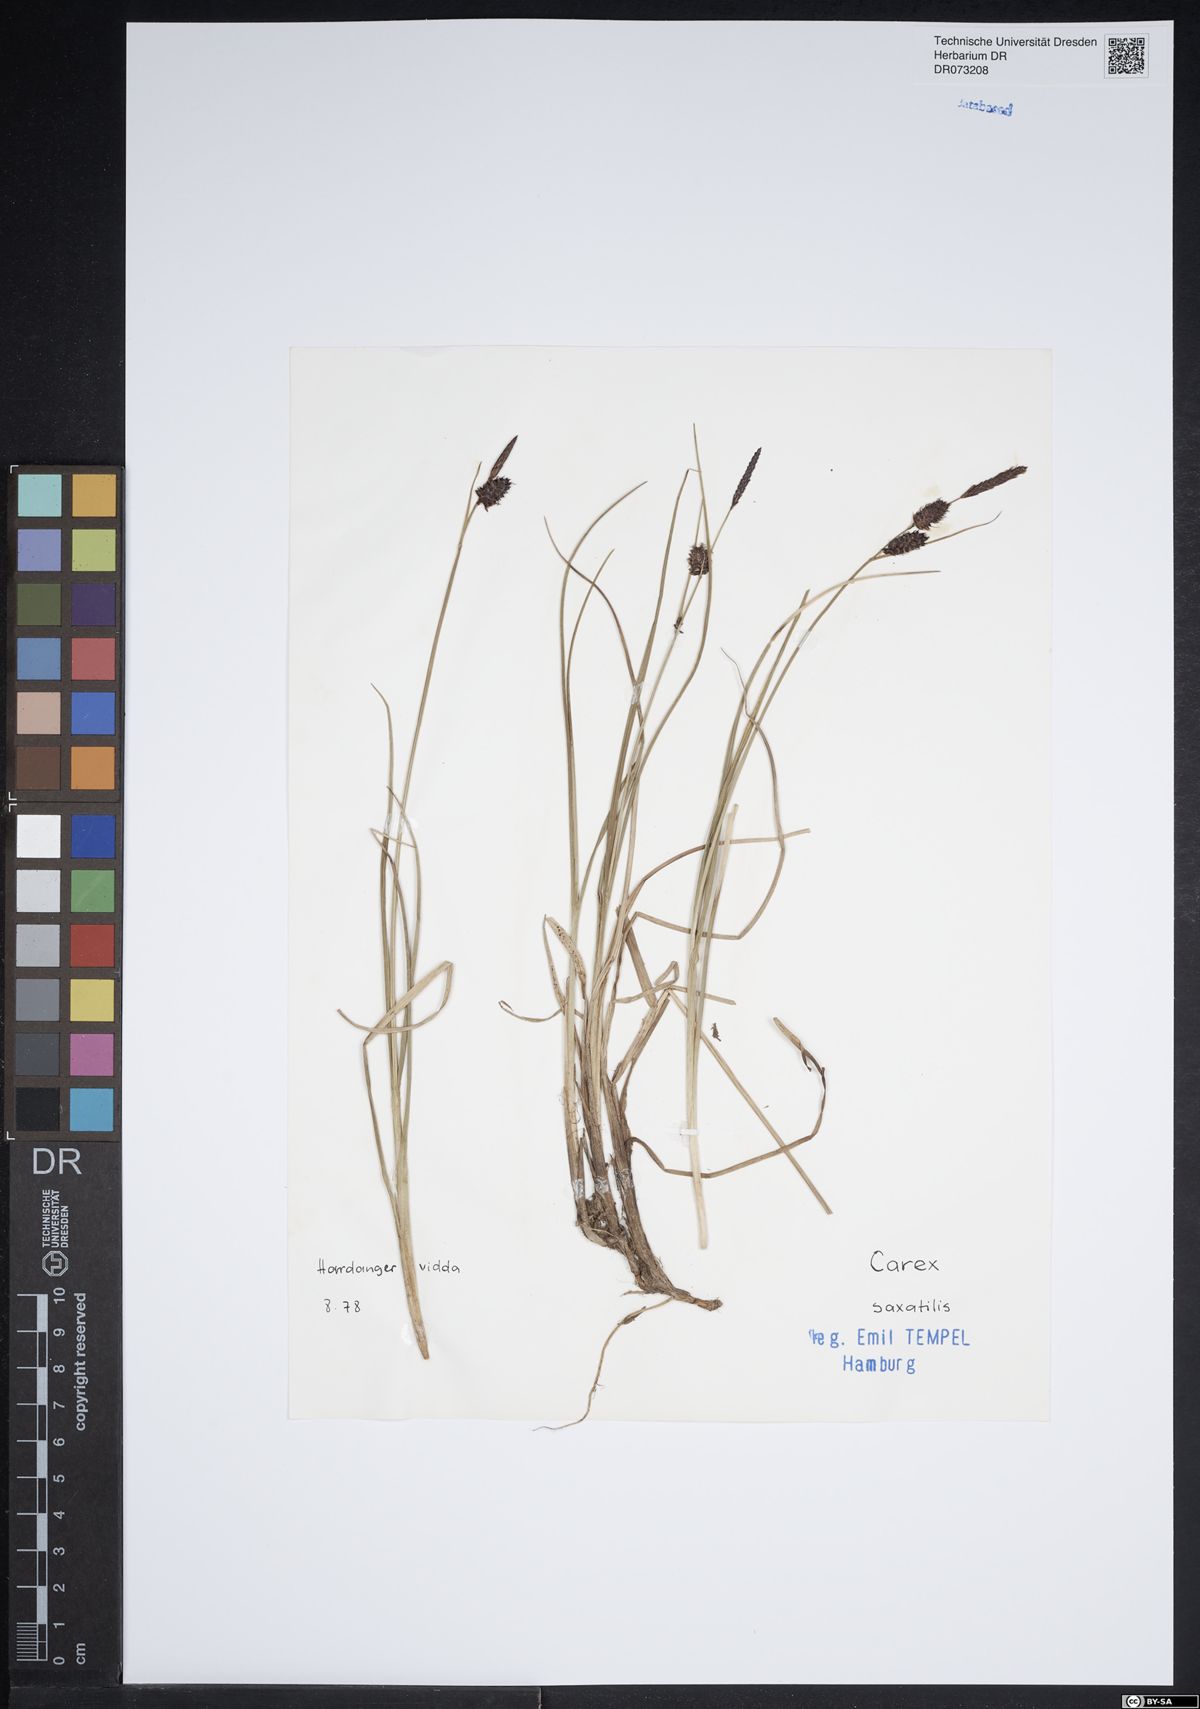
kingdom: Plantae
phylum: Tracheophyta
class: Liliopsida
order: Poales
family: Cyperaceae
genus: Carex
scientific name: Carex saxatilis
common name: Russet sedge
